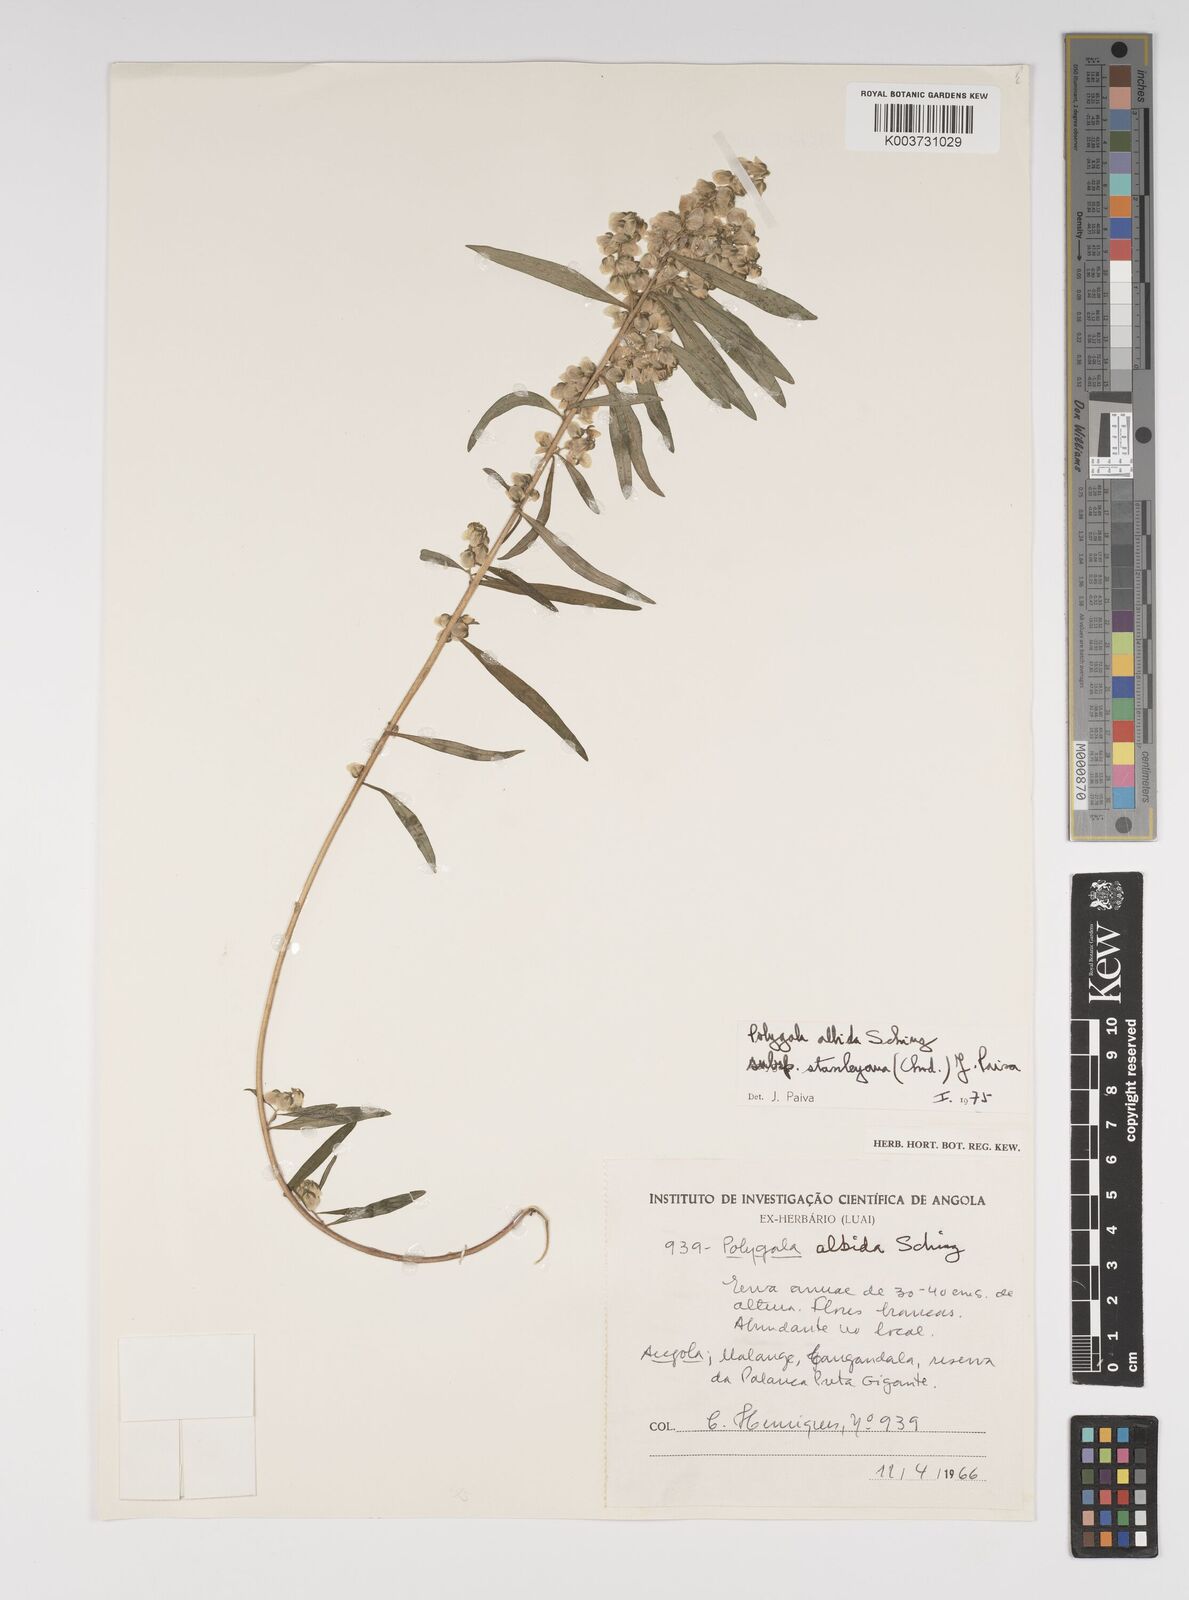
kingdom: Plantae
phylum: Tracheophyta
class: Magnoliopsida
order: Fabales
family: Polygalaceae
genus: Polygala
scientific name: Polygala albida
